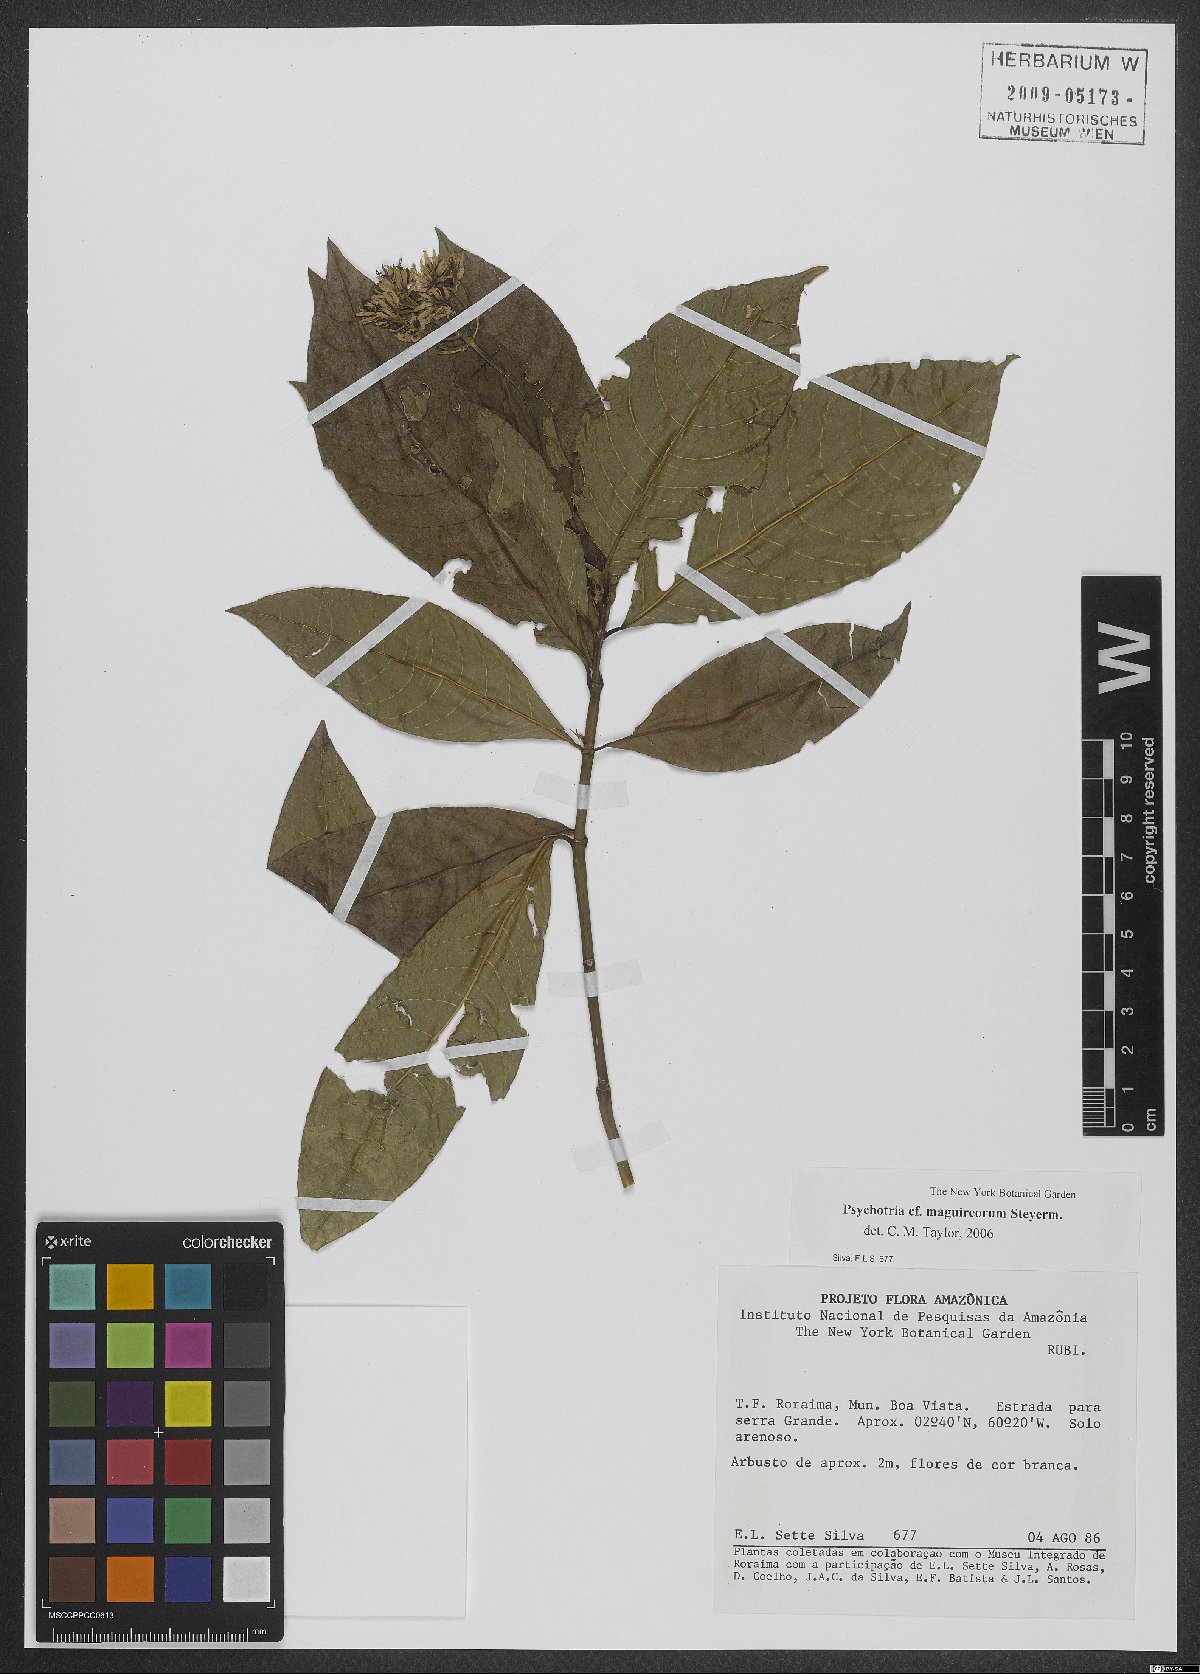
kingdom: Plantae
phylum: Tracheophyta
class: Magnoliopsida
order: Gentianales
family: Rubiaceae
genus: Palicourea
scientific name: Palicourea maguireorum
